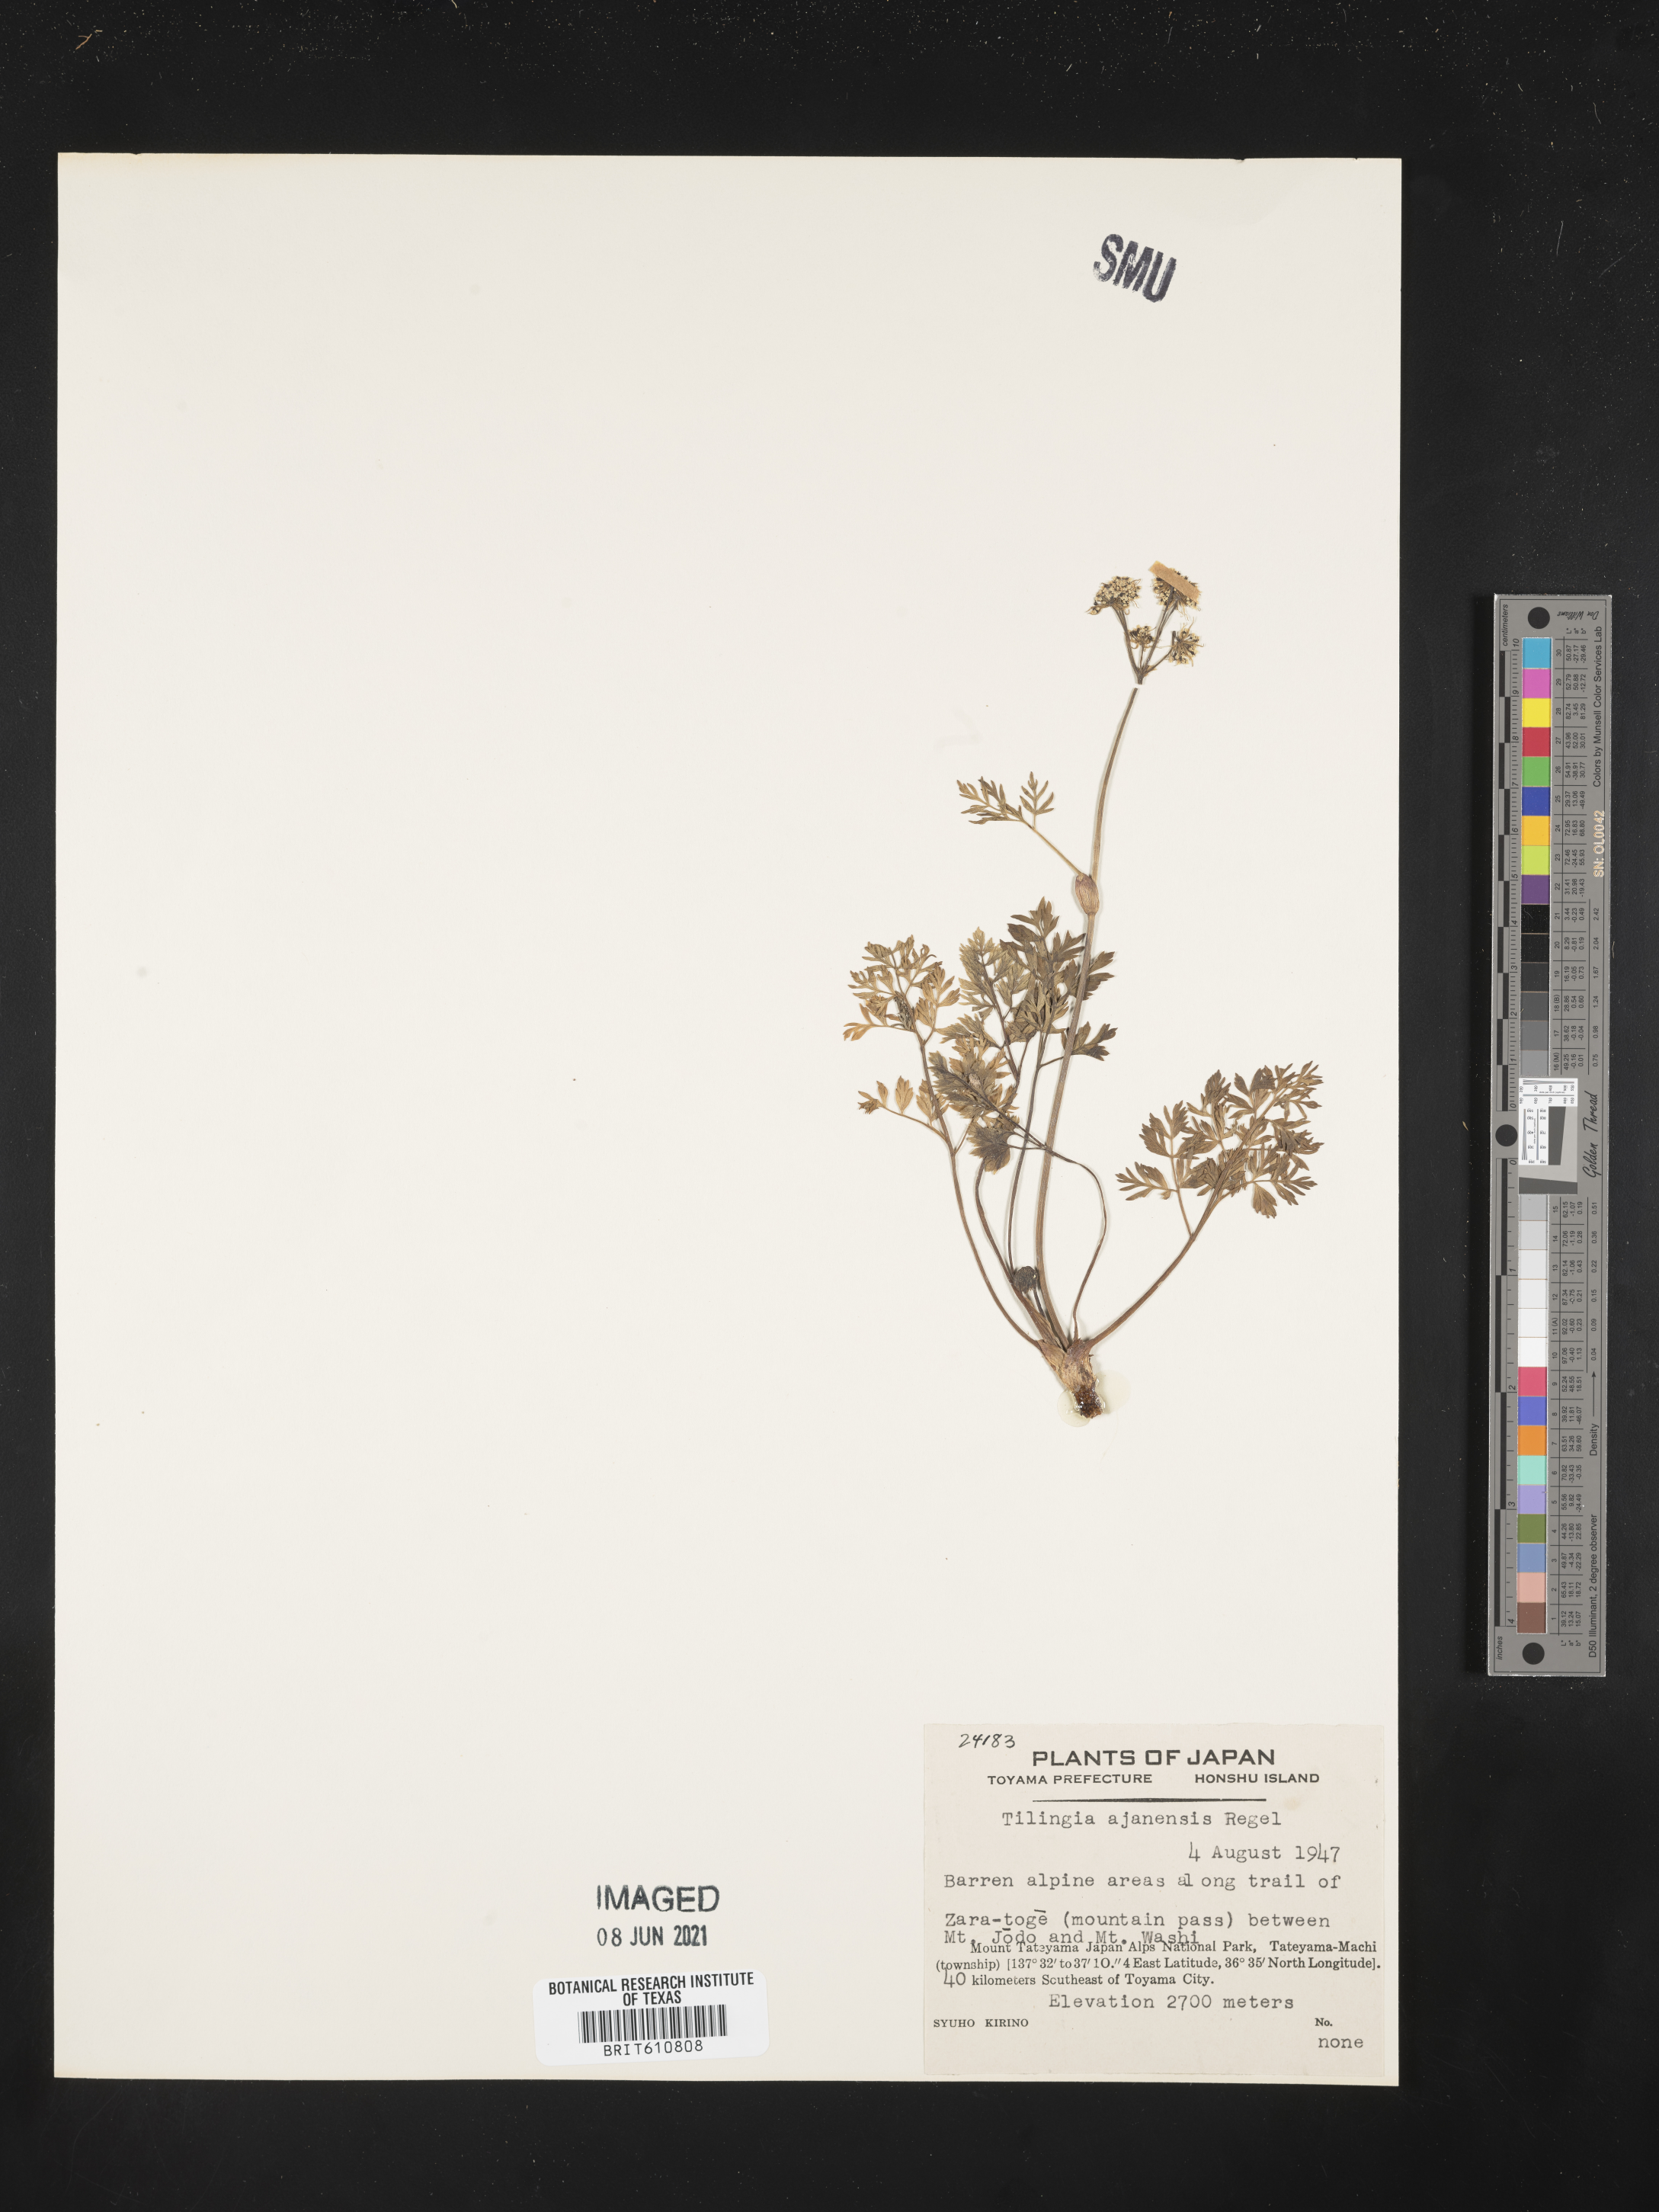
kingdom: Plantae
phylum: Tracheophyta
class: Magnoliopsida
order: Apiales
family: Apiaceae
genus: Tilingia
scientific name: Tilingia ajanensis
